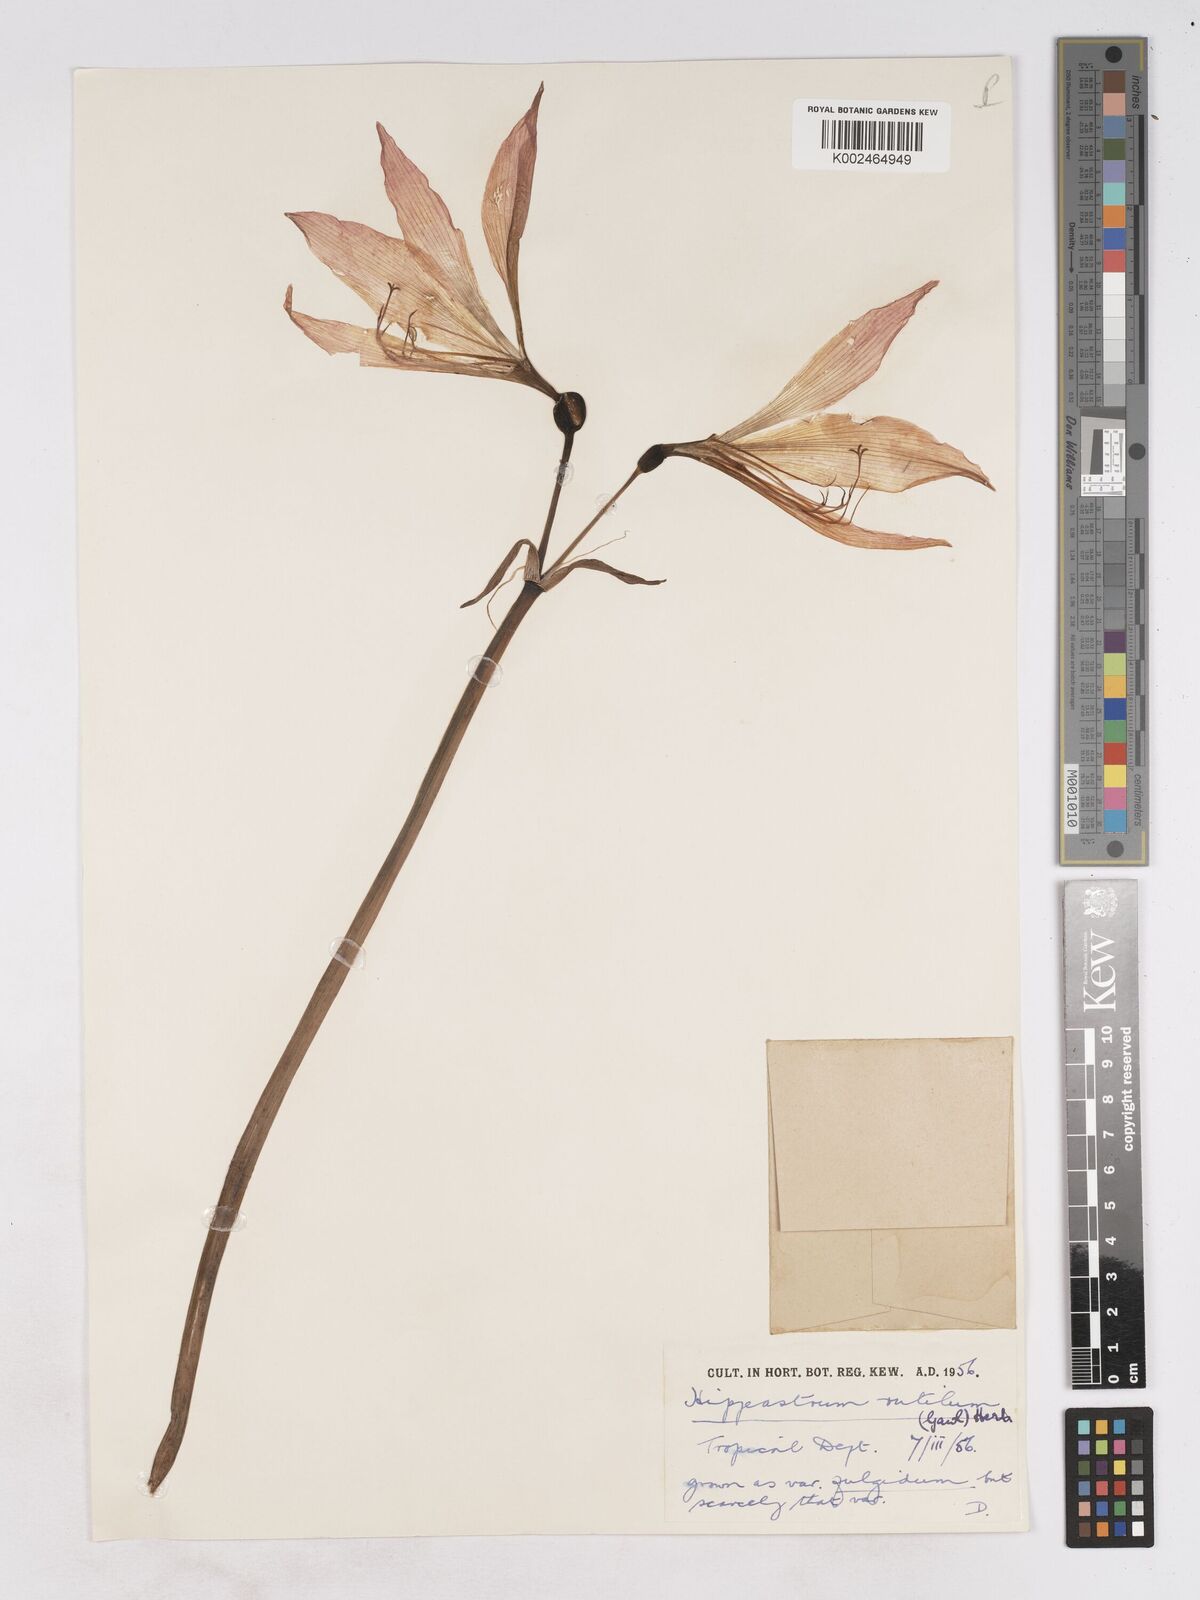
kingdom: Plantae
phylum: Tracheophyta
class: Liliopsida
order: Asparagales
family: Amaryllidaceae
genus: Hippeastrum
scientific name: Hippeastrum striatum
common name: Striped barbados lily
